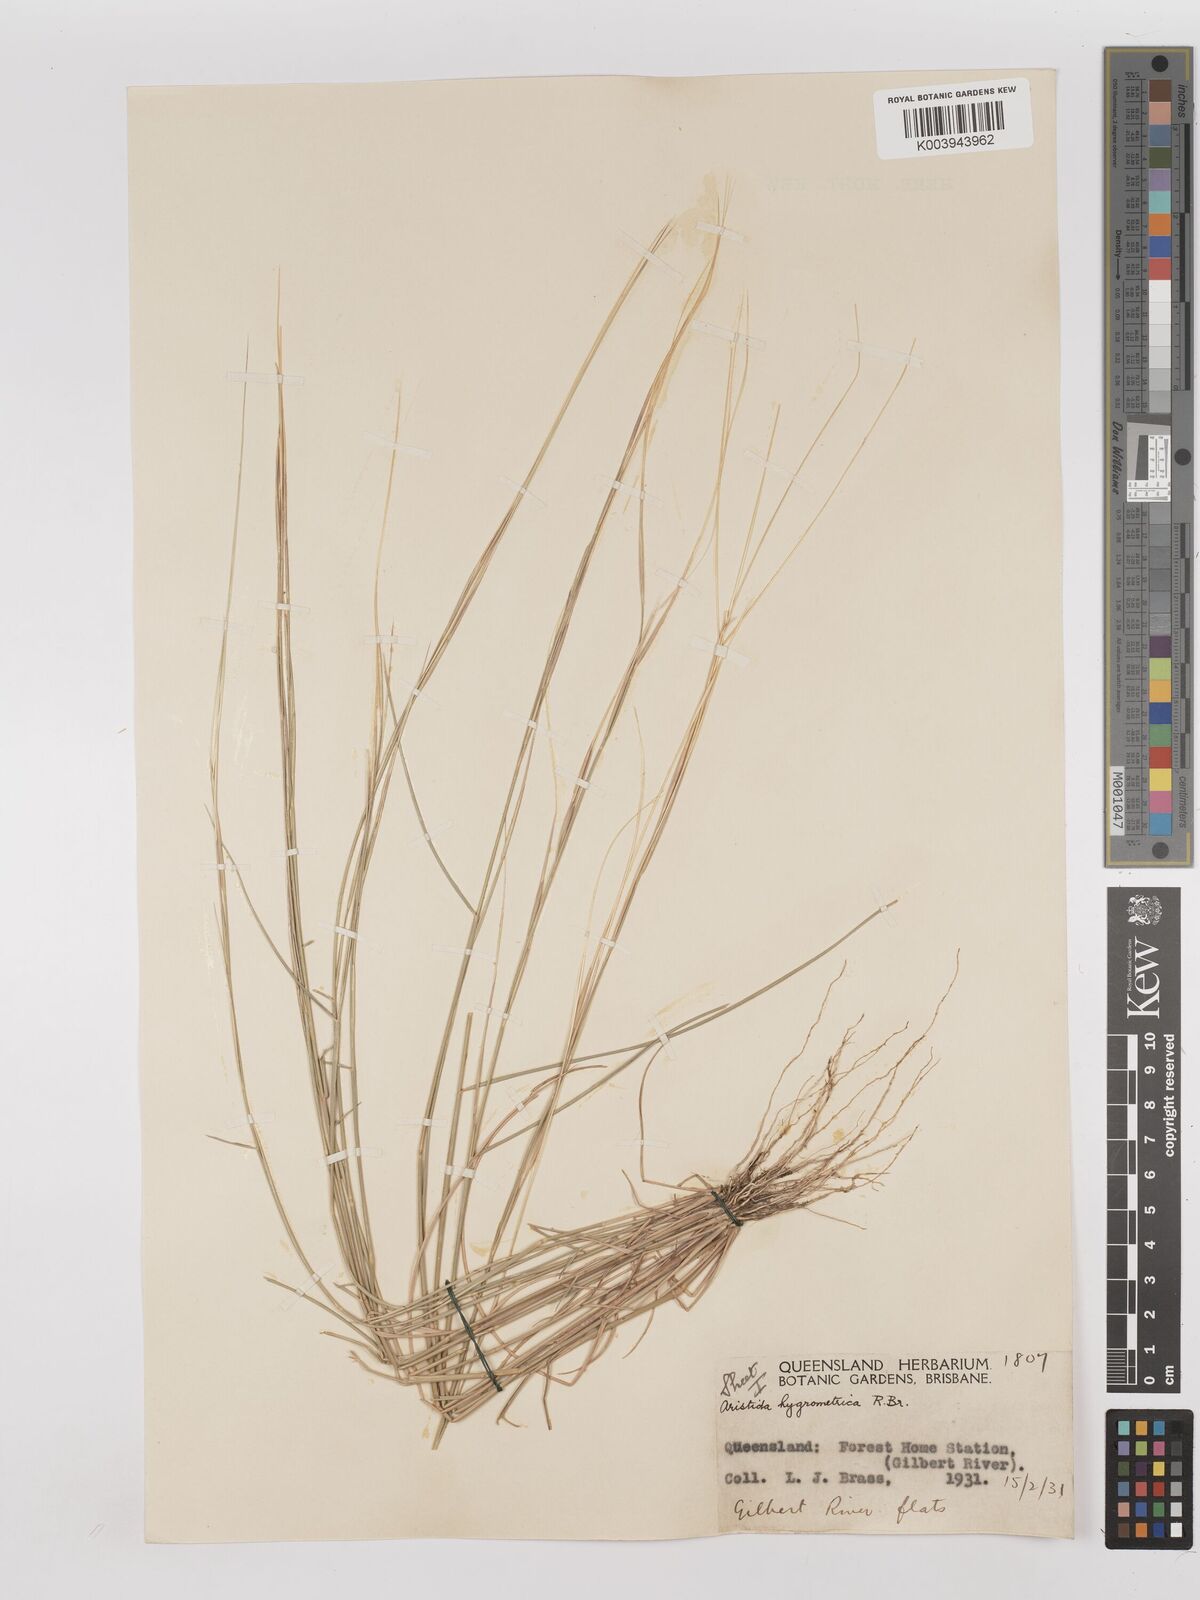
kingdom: Plantae
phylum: Tracheophyta
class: Liliopsida
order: Poales
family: Poaceae
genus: Aristida
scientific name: Aristida hygrometrica
